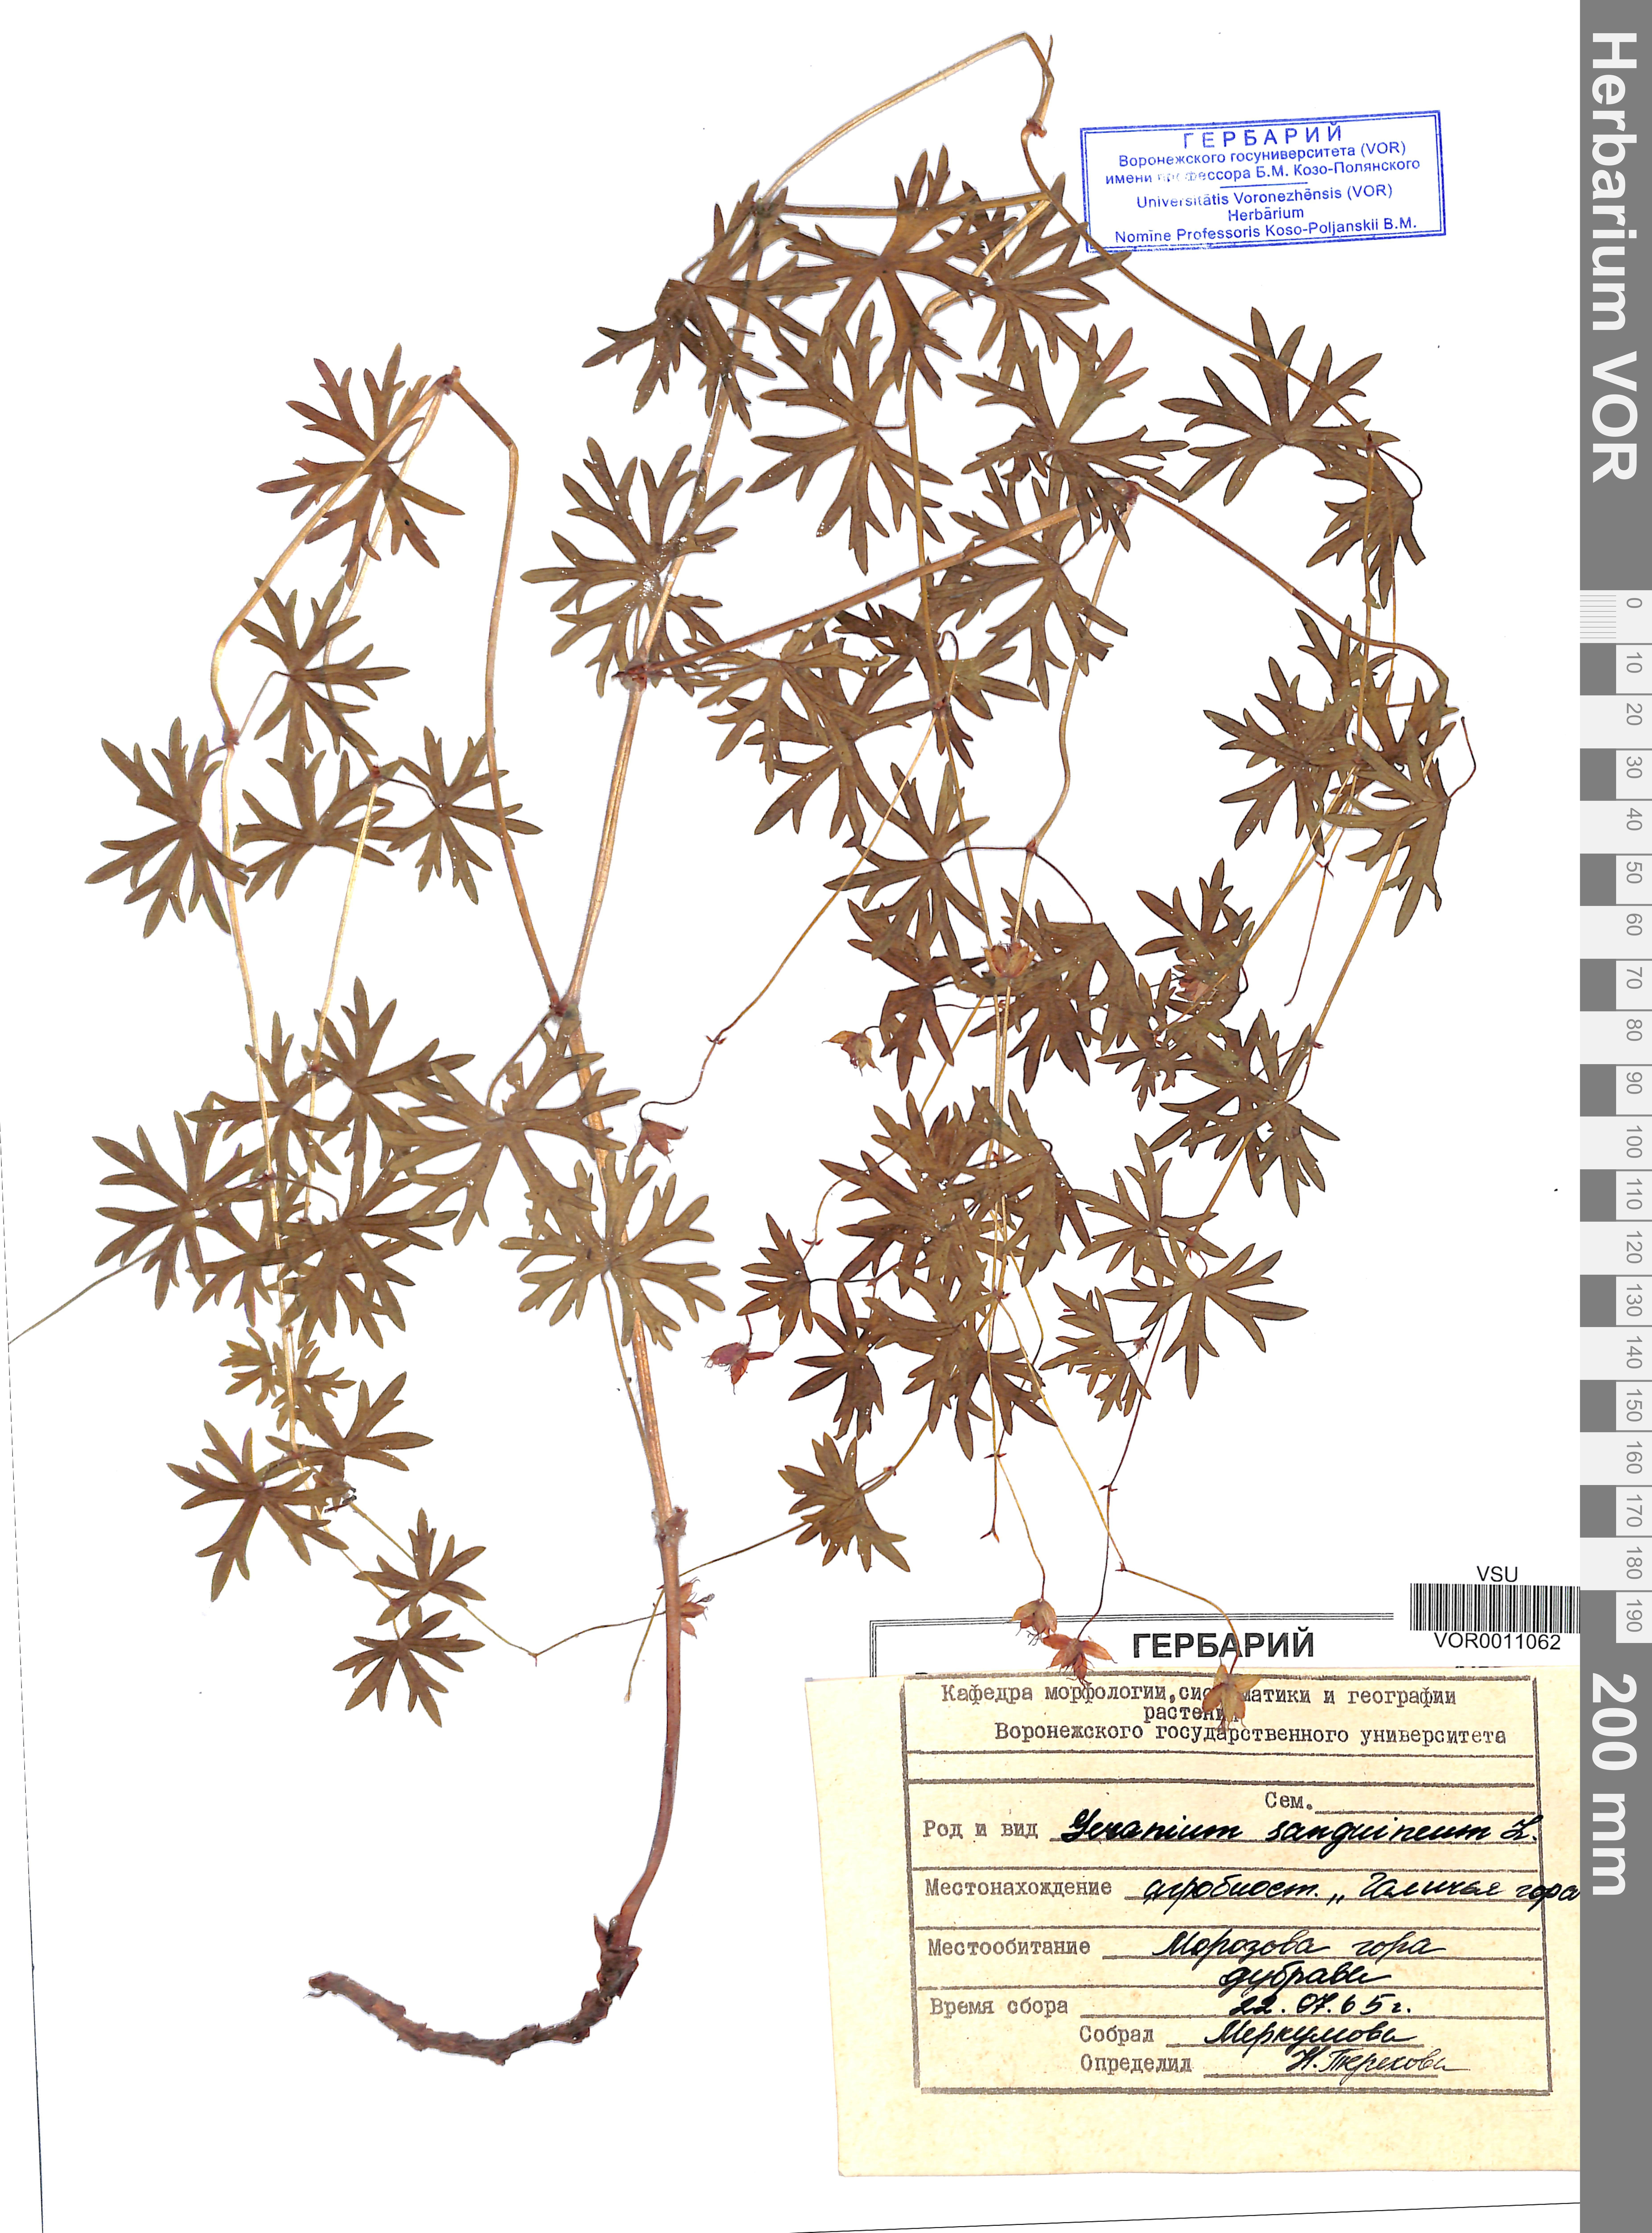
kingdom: Plantae
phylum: Tracheophyta
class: Magnoliopsida
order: Geraniales
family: Geraniaceae
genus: Geranium
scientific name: Geranium sanguineum
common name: Bloody crane's-bill
